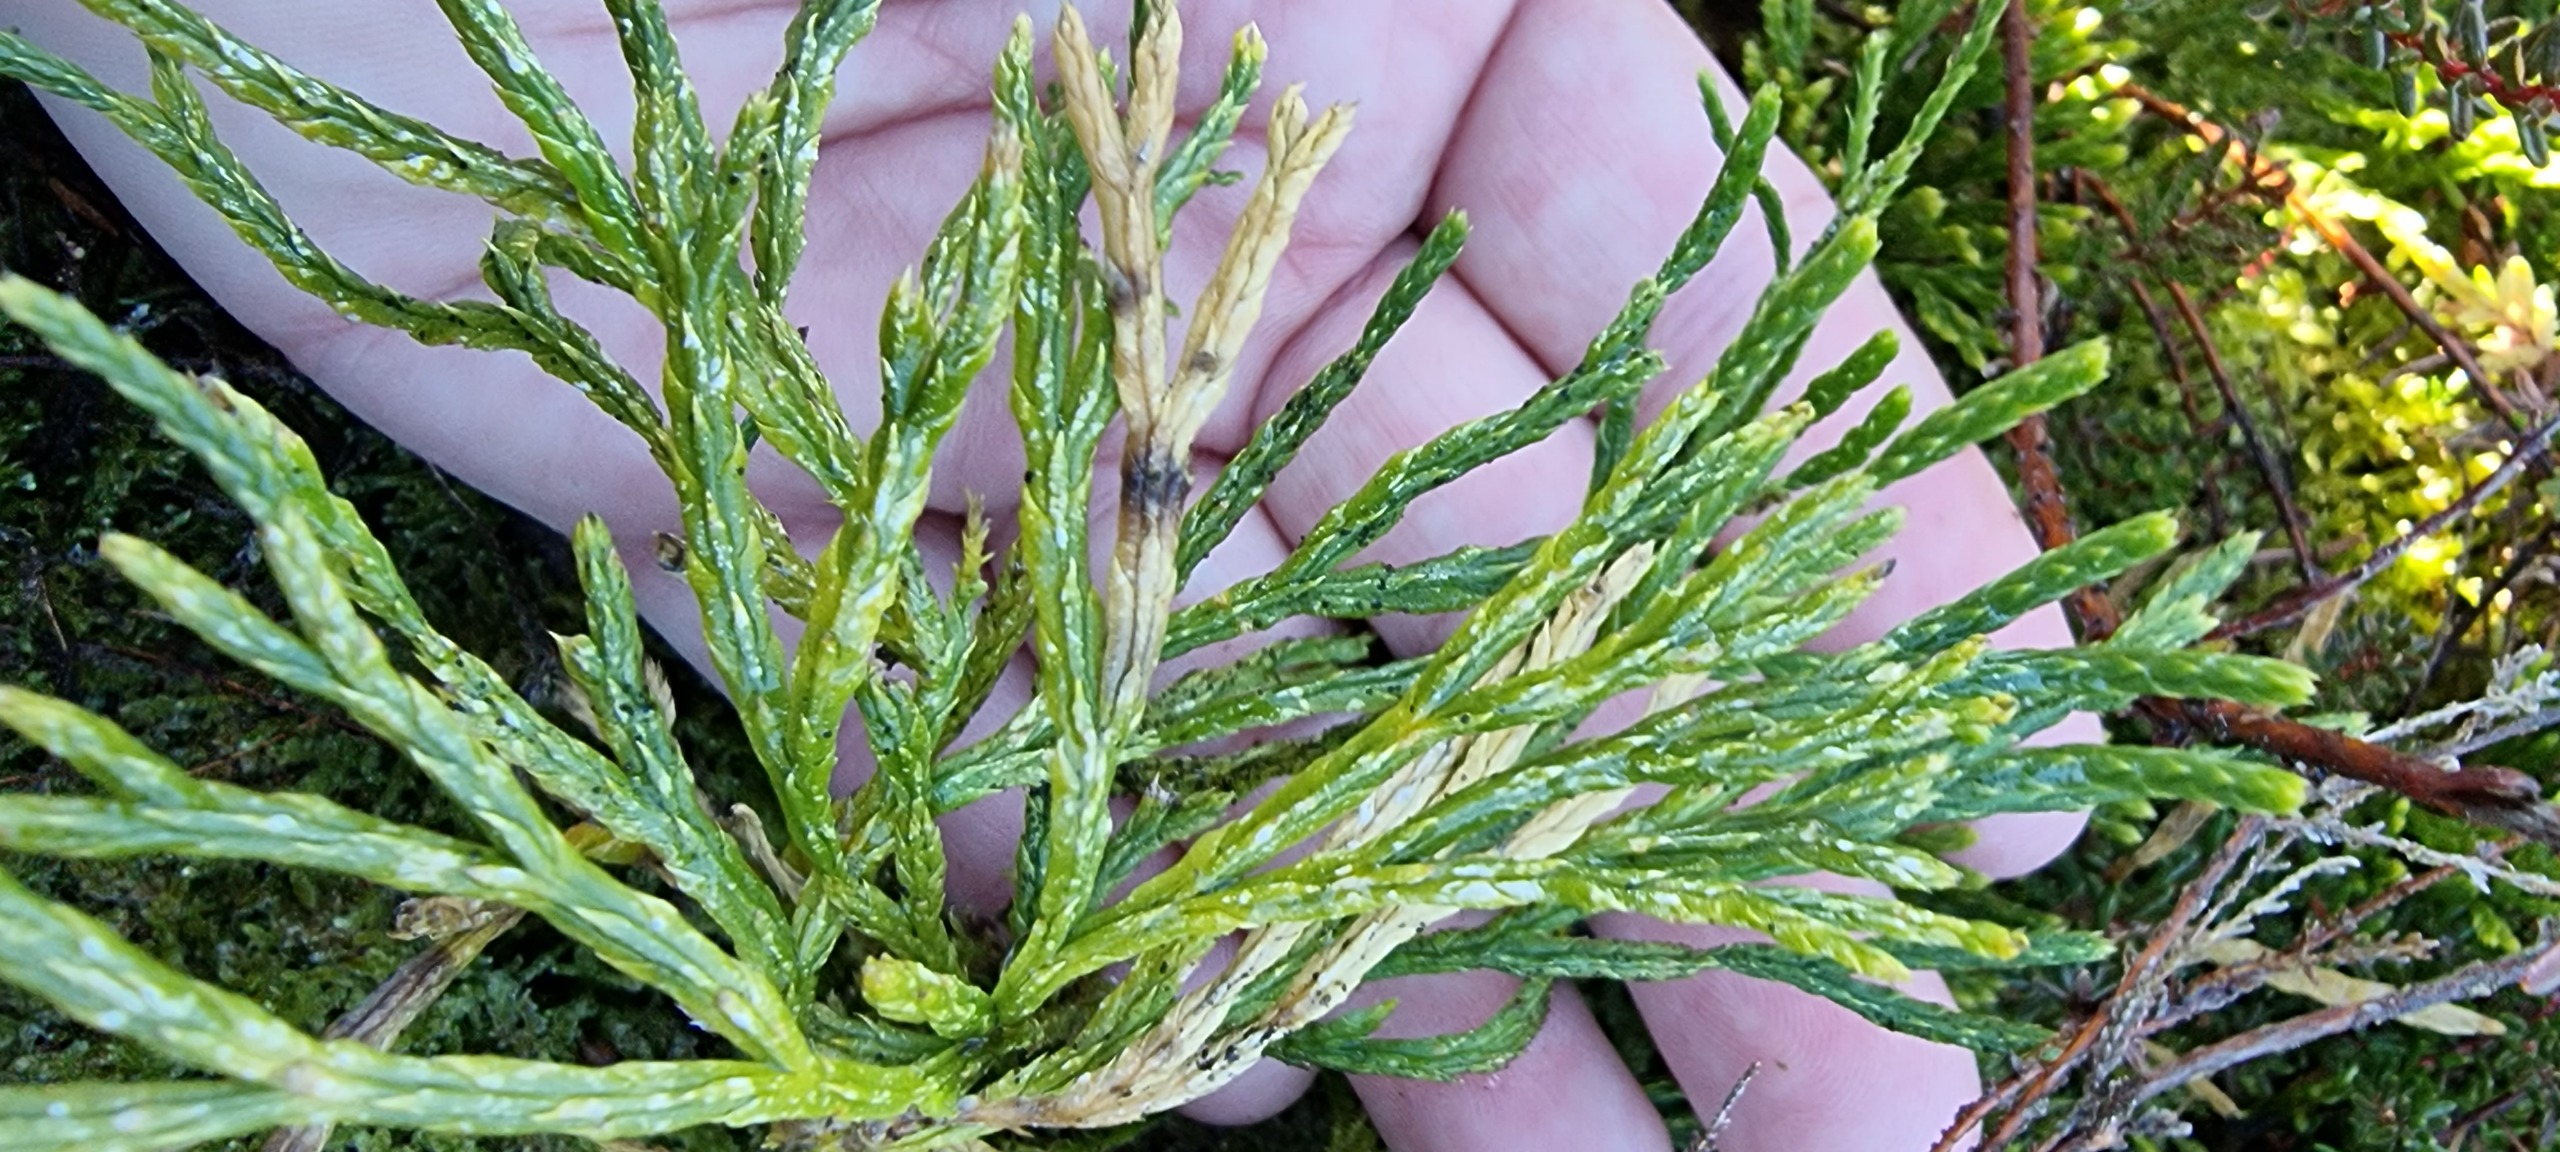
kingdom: Plantae
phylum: Tracheophyta
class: Lycopodiopsida
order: Lycopodiales
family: Lycopodiaceae
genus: Diphasiastrum
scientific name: Diphasiastrum complanatum
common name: Flad ulvefod
